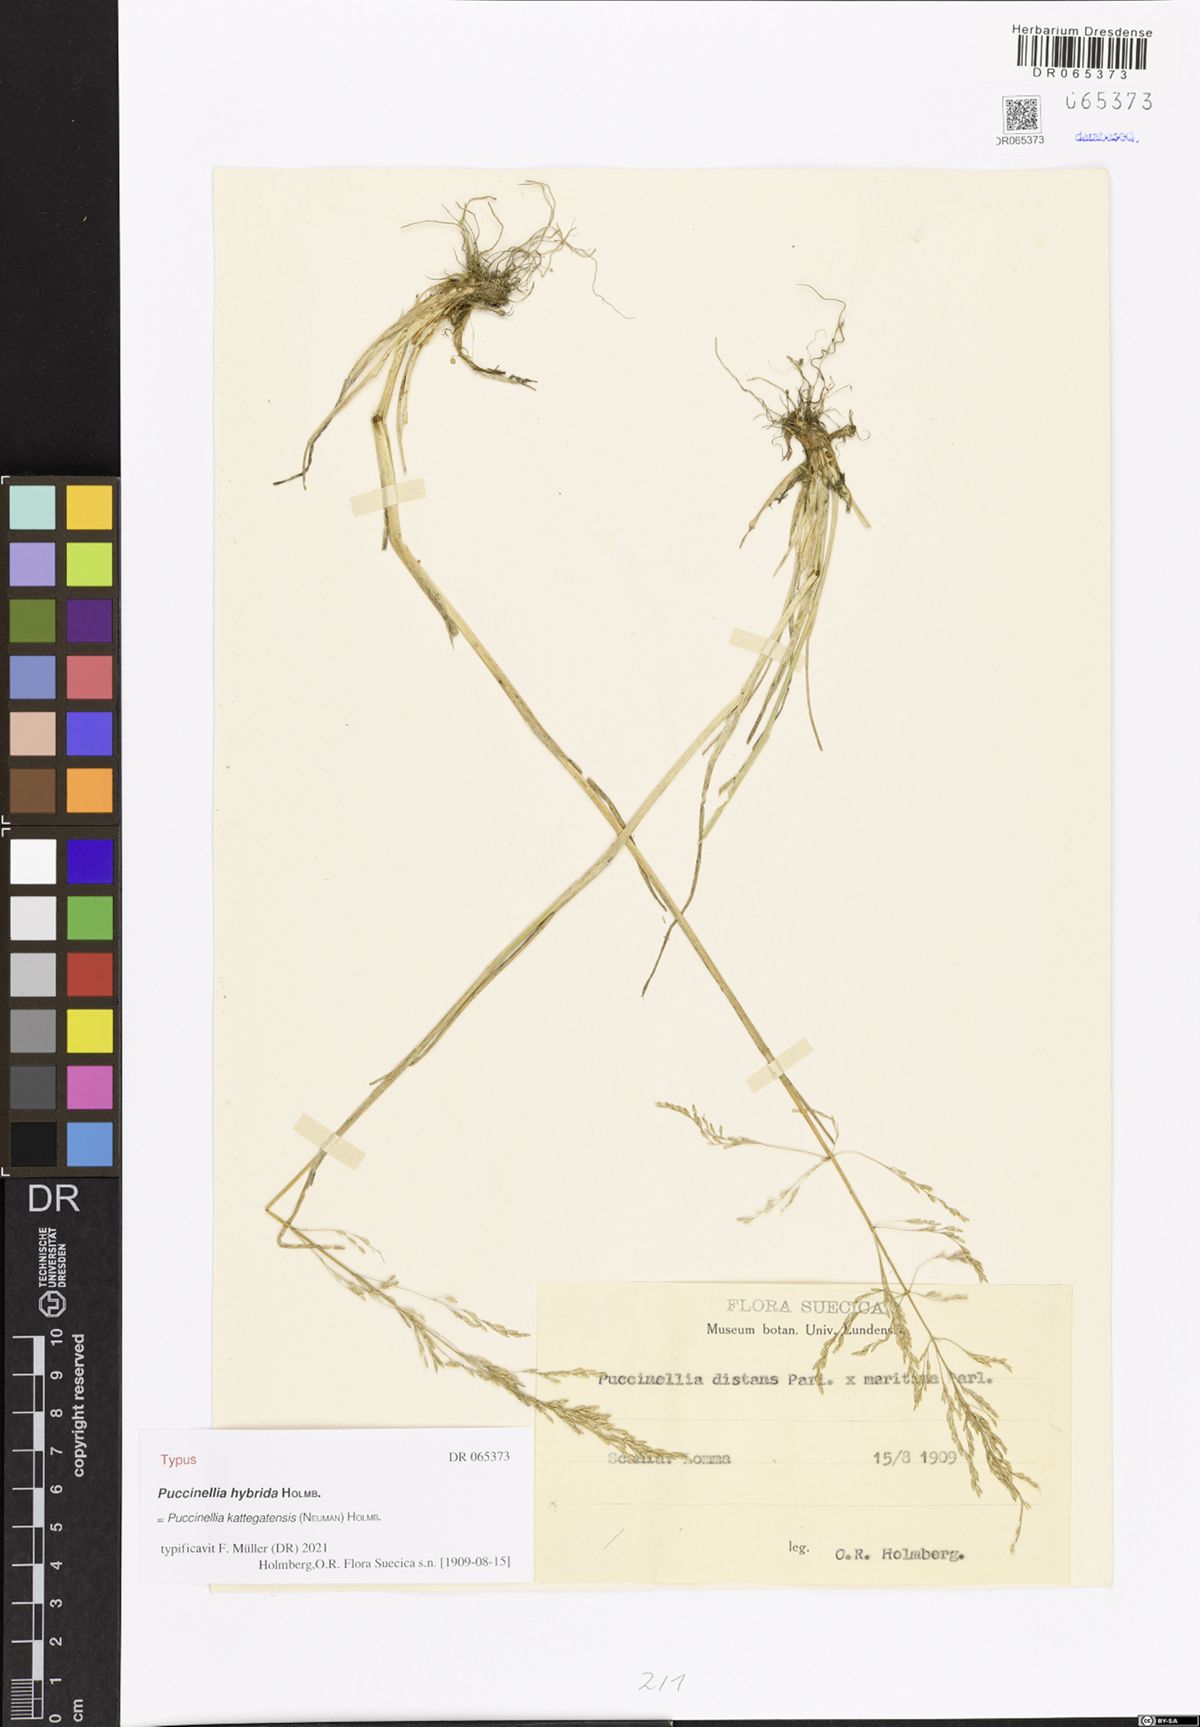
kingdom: Plantae
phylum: Tracheophyta
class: Liliopsida
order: Poales
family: Poaceae
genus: Puccinellia
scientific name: Puccinellia kattegatensis
